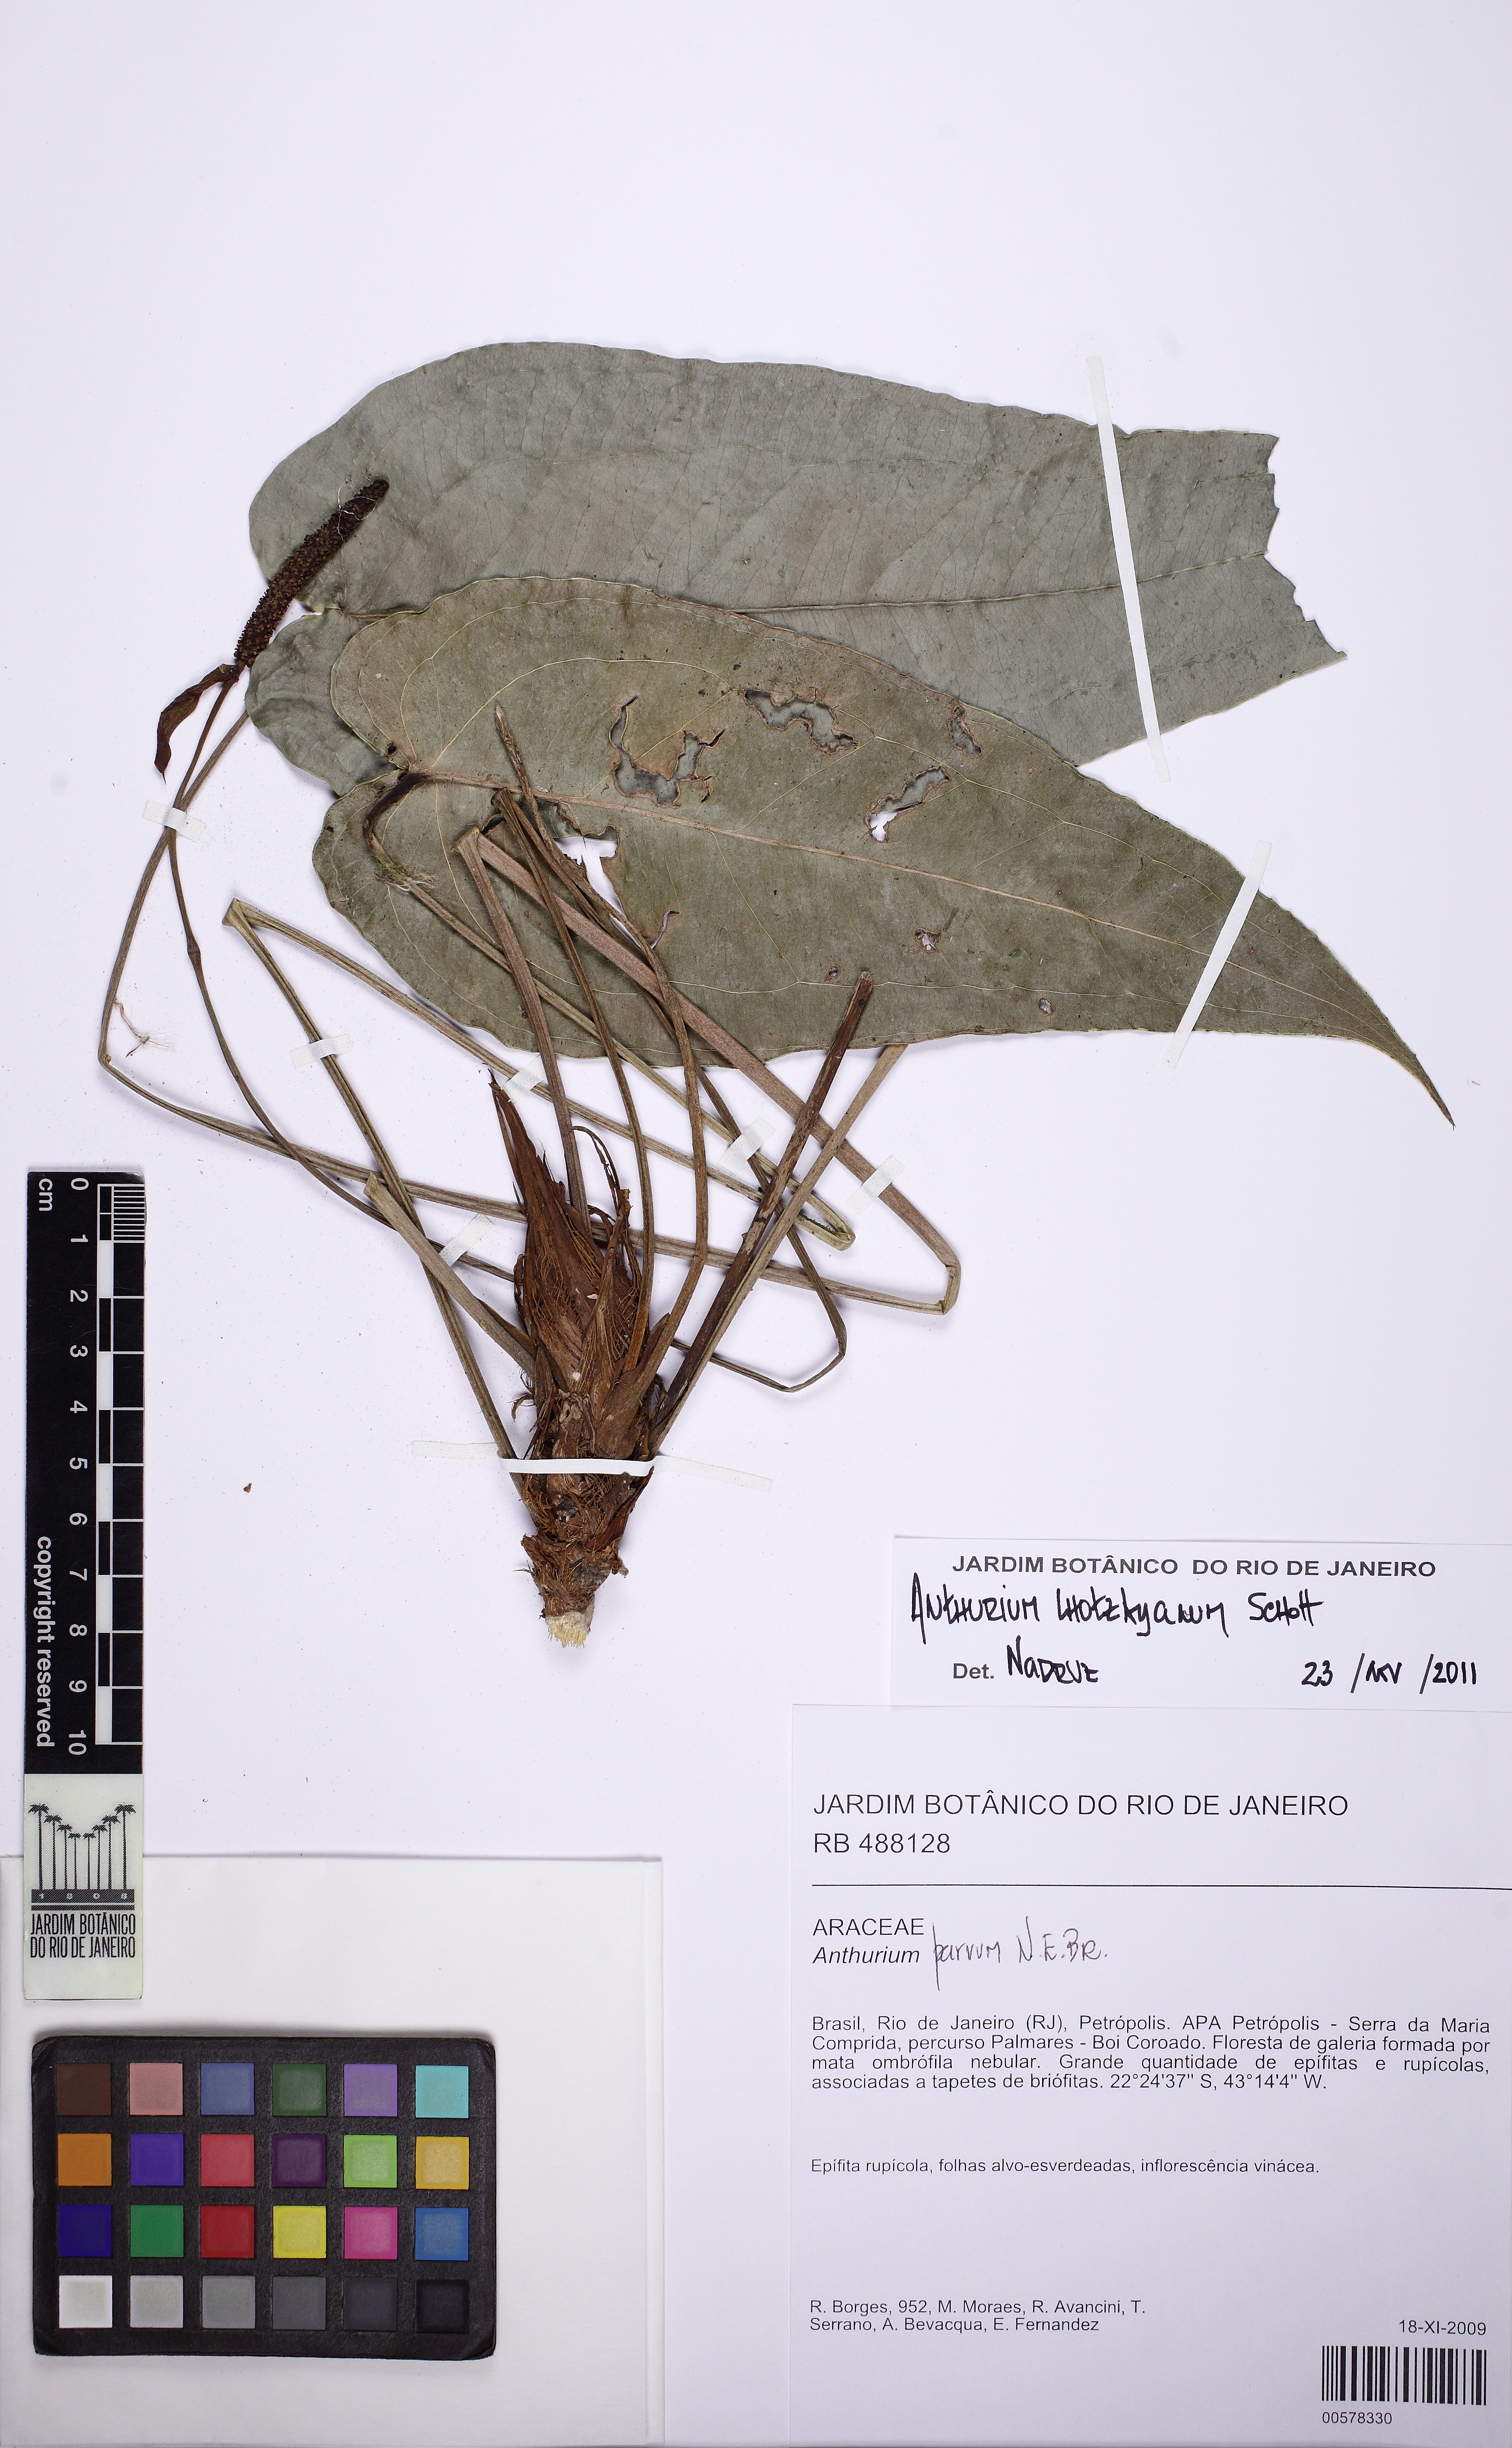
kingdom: Plantae
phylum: Tracheophyta
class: Liliopsida
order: Alismatales
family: Araceae
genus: Anthurium
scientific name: Anthurium augustinum
